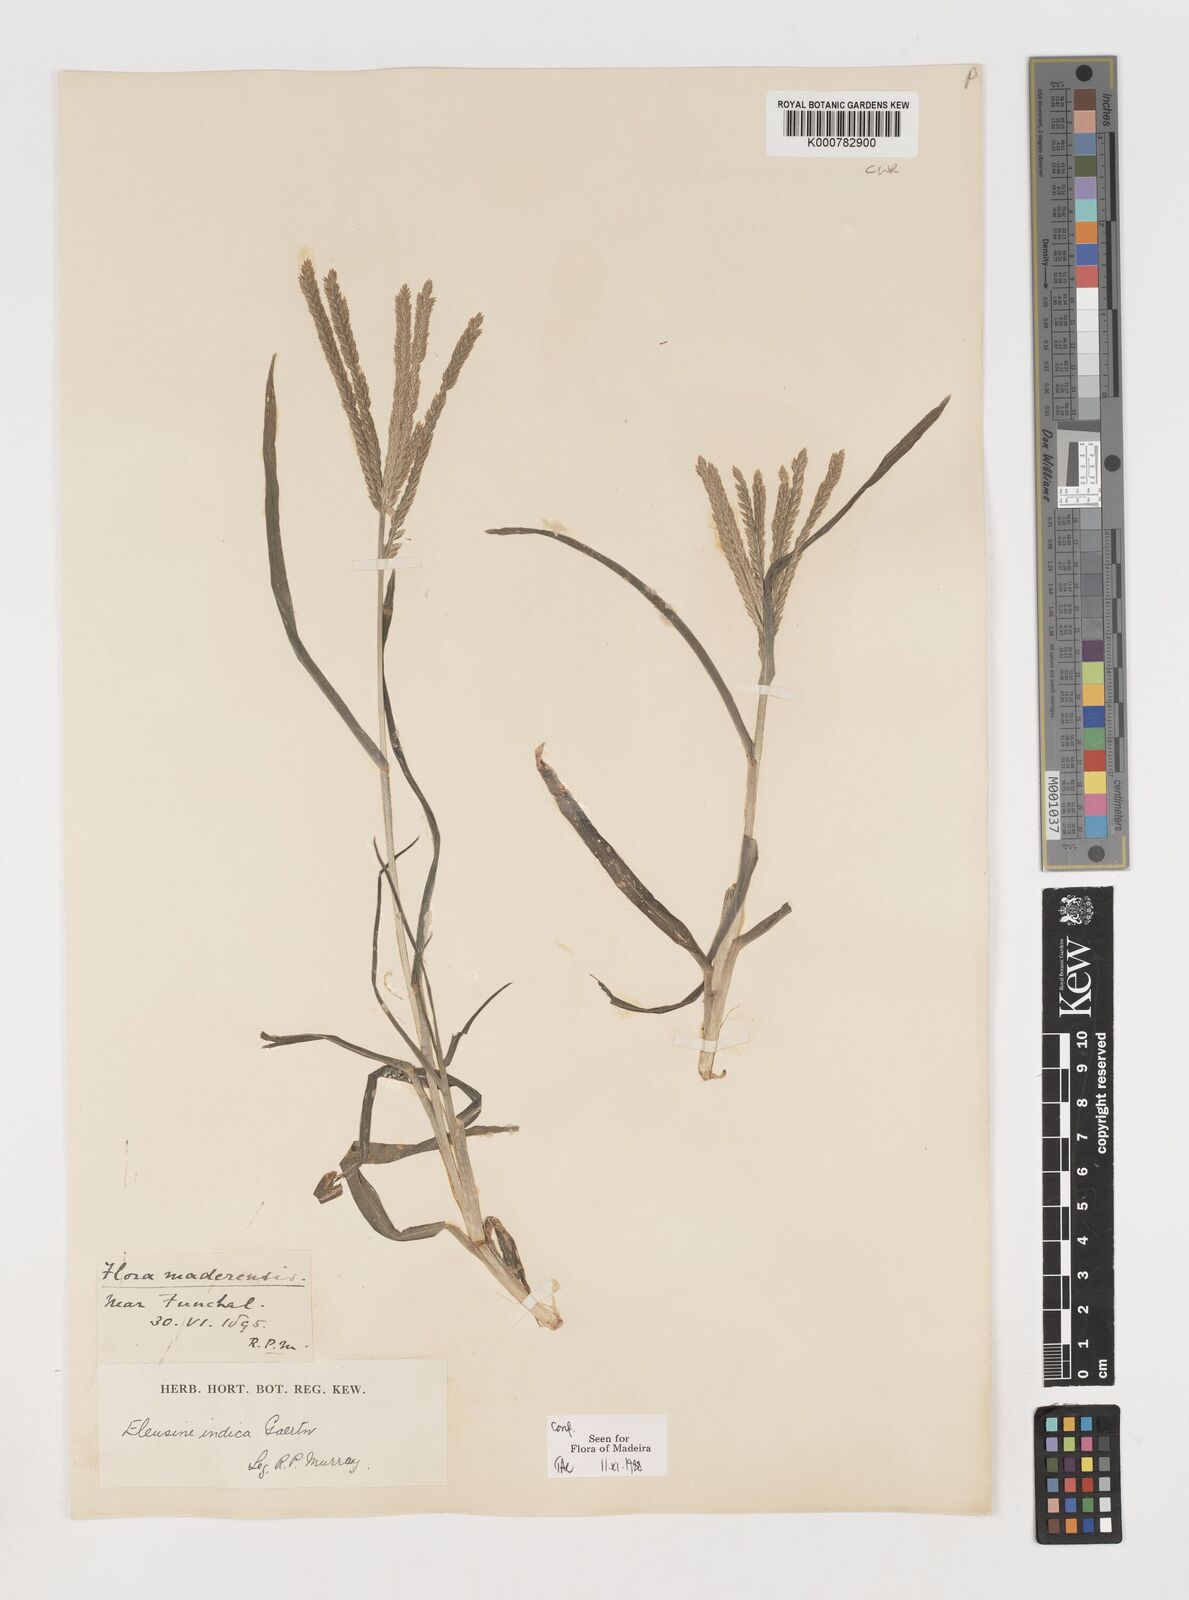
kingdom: Plantae
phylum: Tracheophyta
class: Liliopsida
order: Poales
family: Poaceae
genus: Eleusine
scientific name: Eleusine indica
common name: Yard-grass
